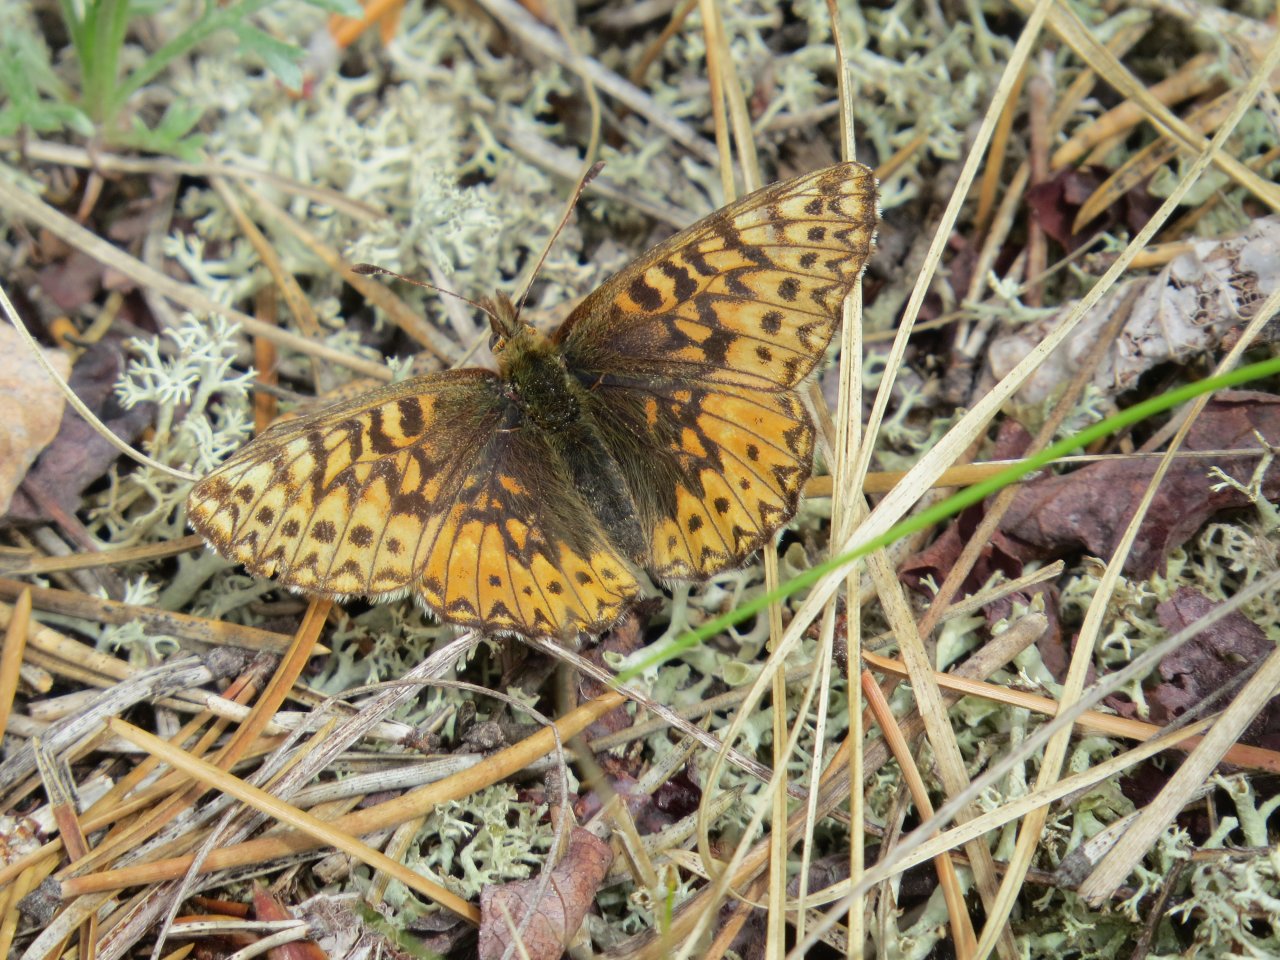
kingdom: Animalia
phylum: Arthropoda
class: Insecta
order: Lepidoptera
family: Nymphalidae
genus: Boloria
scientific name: Boloria freija
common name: Freija Fritillary
